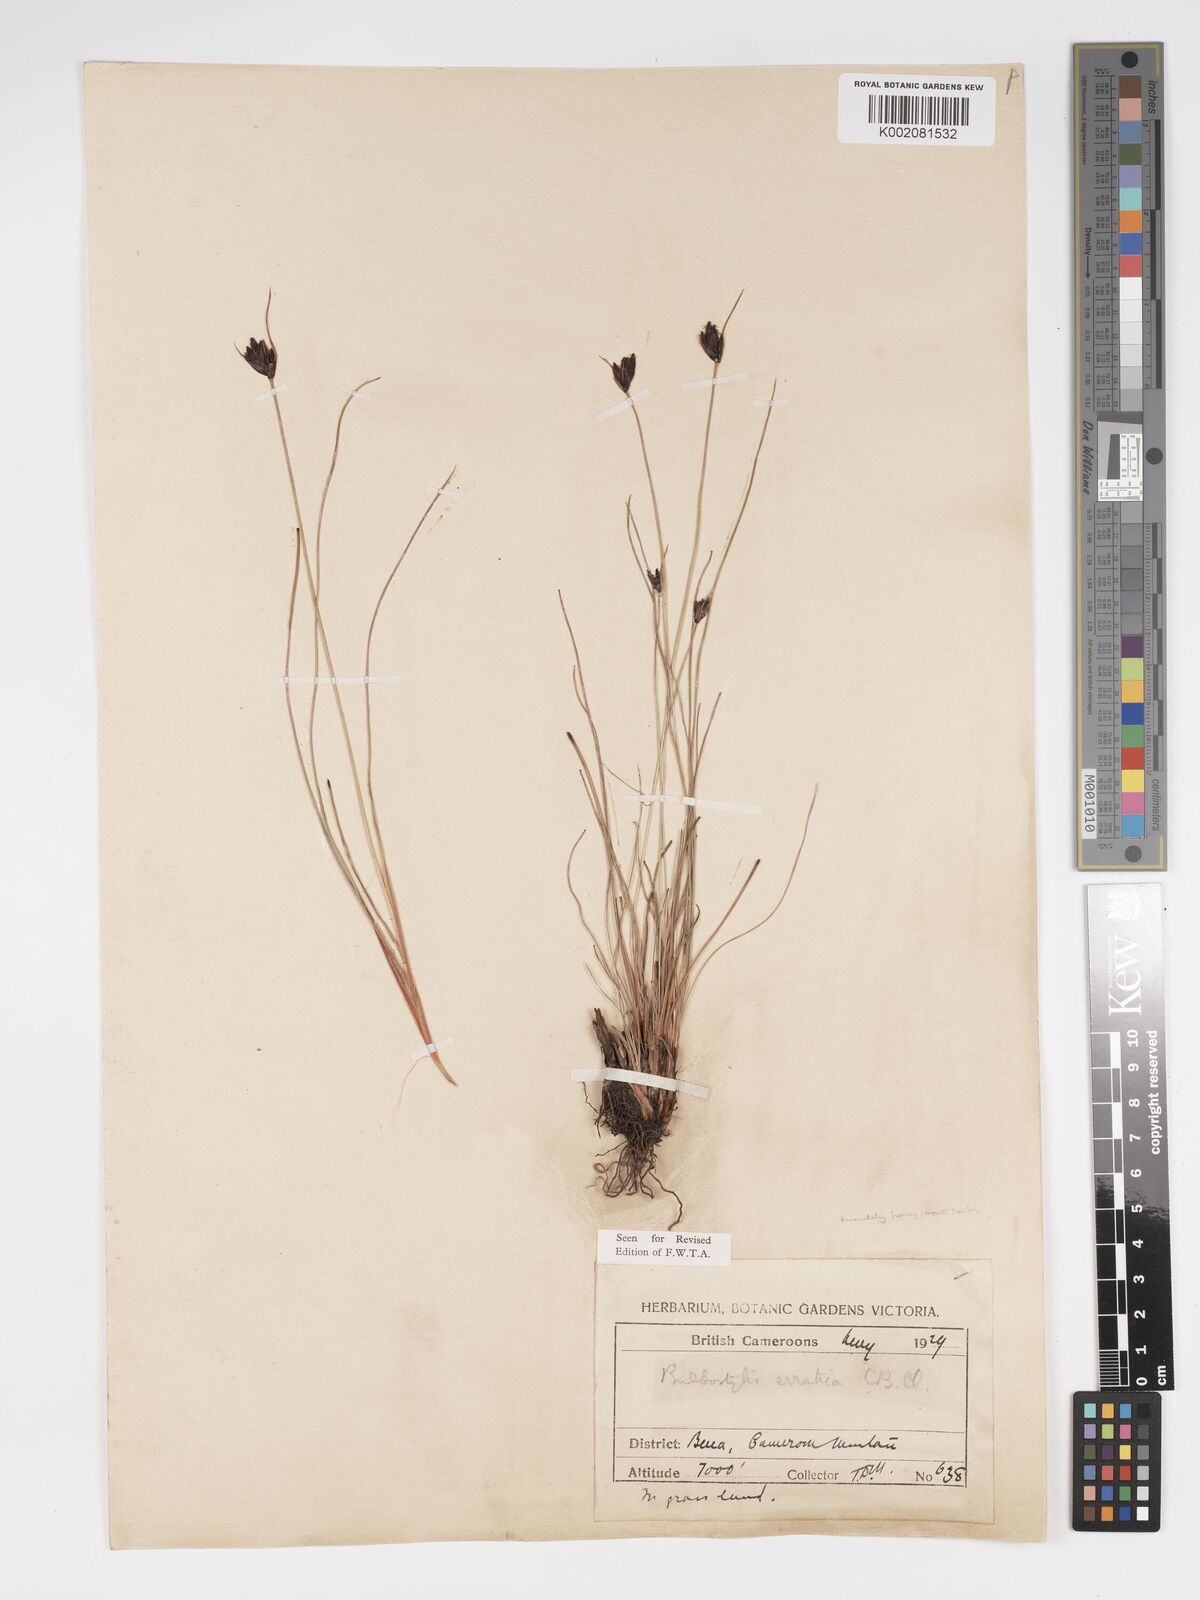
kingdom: Plantae
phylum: Tracheophyta
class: Liliopsida
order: Poales
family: Cyperaceae
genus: Bulbostylis
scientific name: Bulbostylis schoenoides
